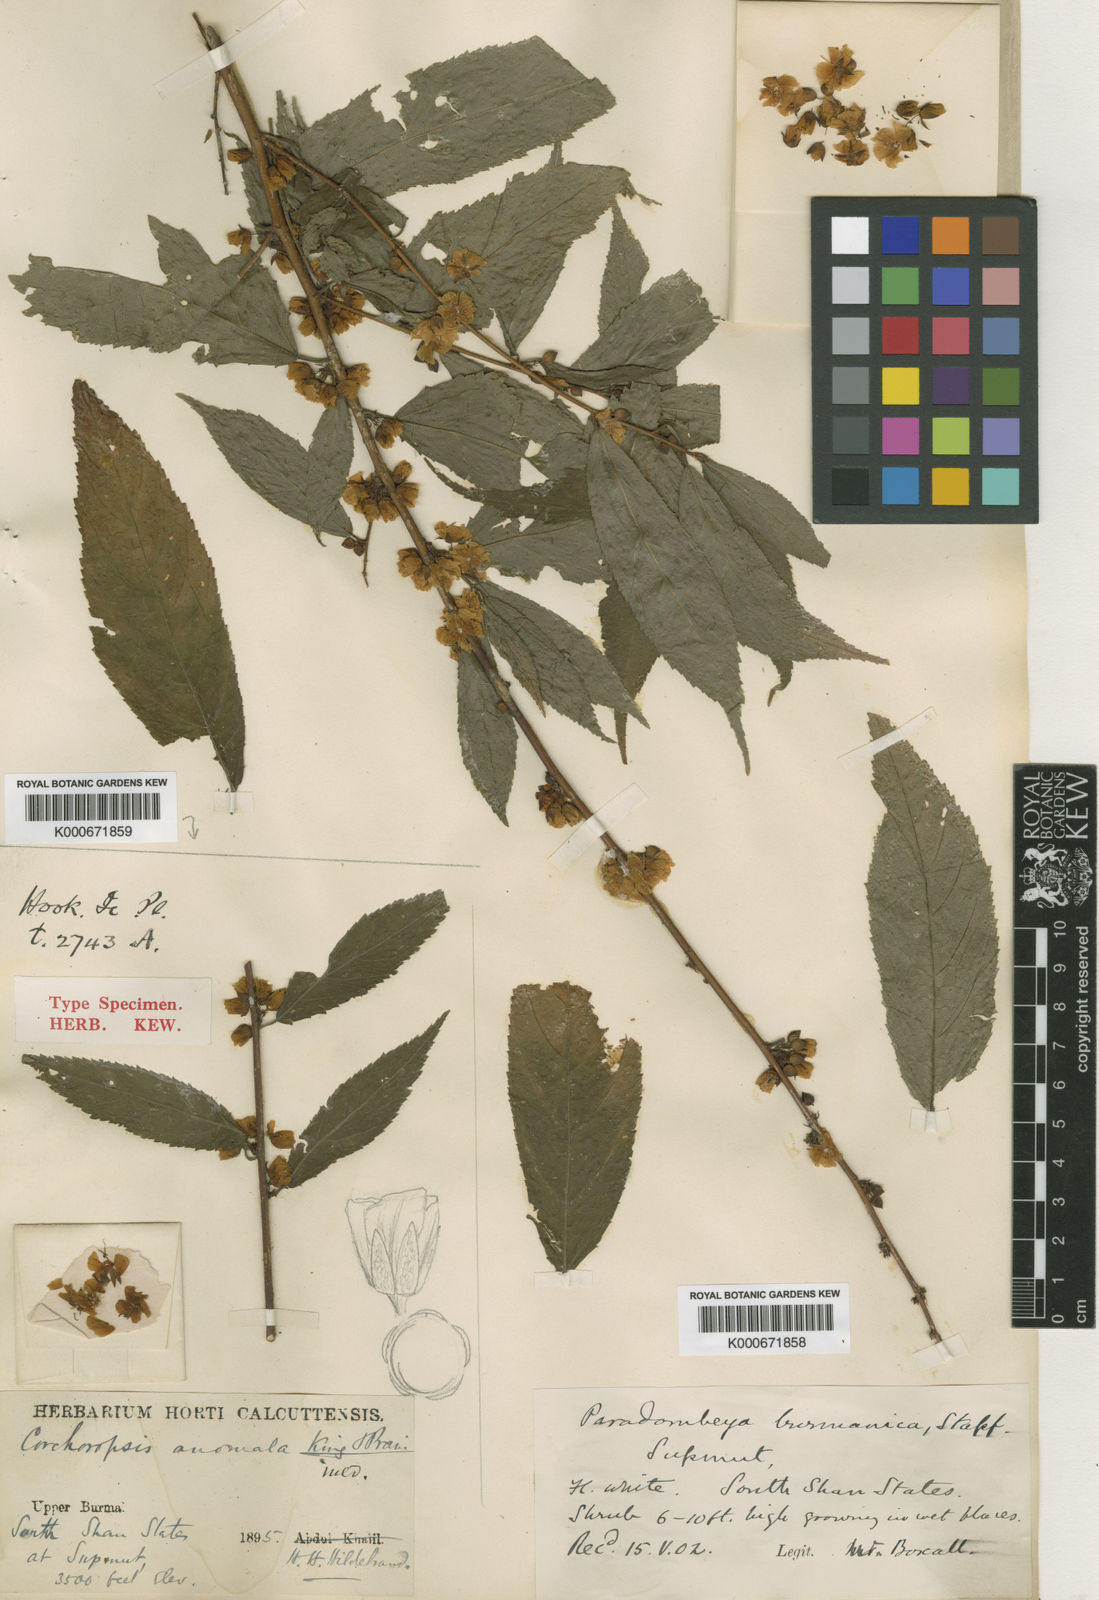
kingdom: Plantae
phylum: Tracheophyta
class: Magnoliopsida
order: Malvales
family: Malvaceae
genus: Corchoropsis
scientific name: Corchoropsis burmanica
